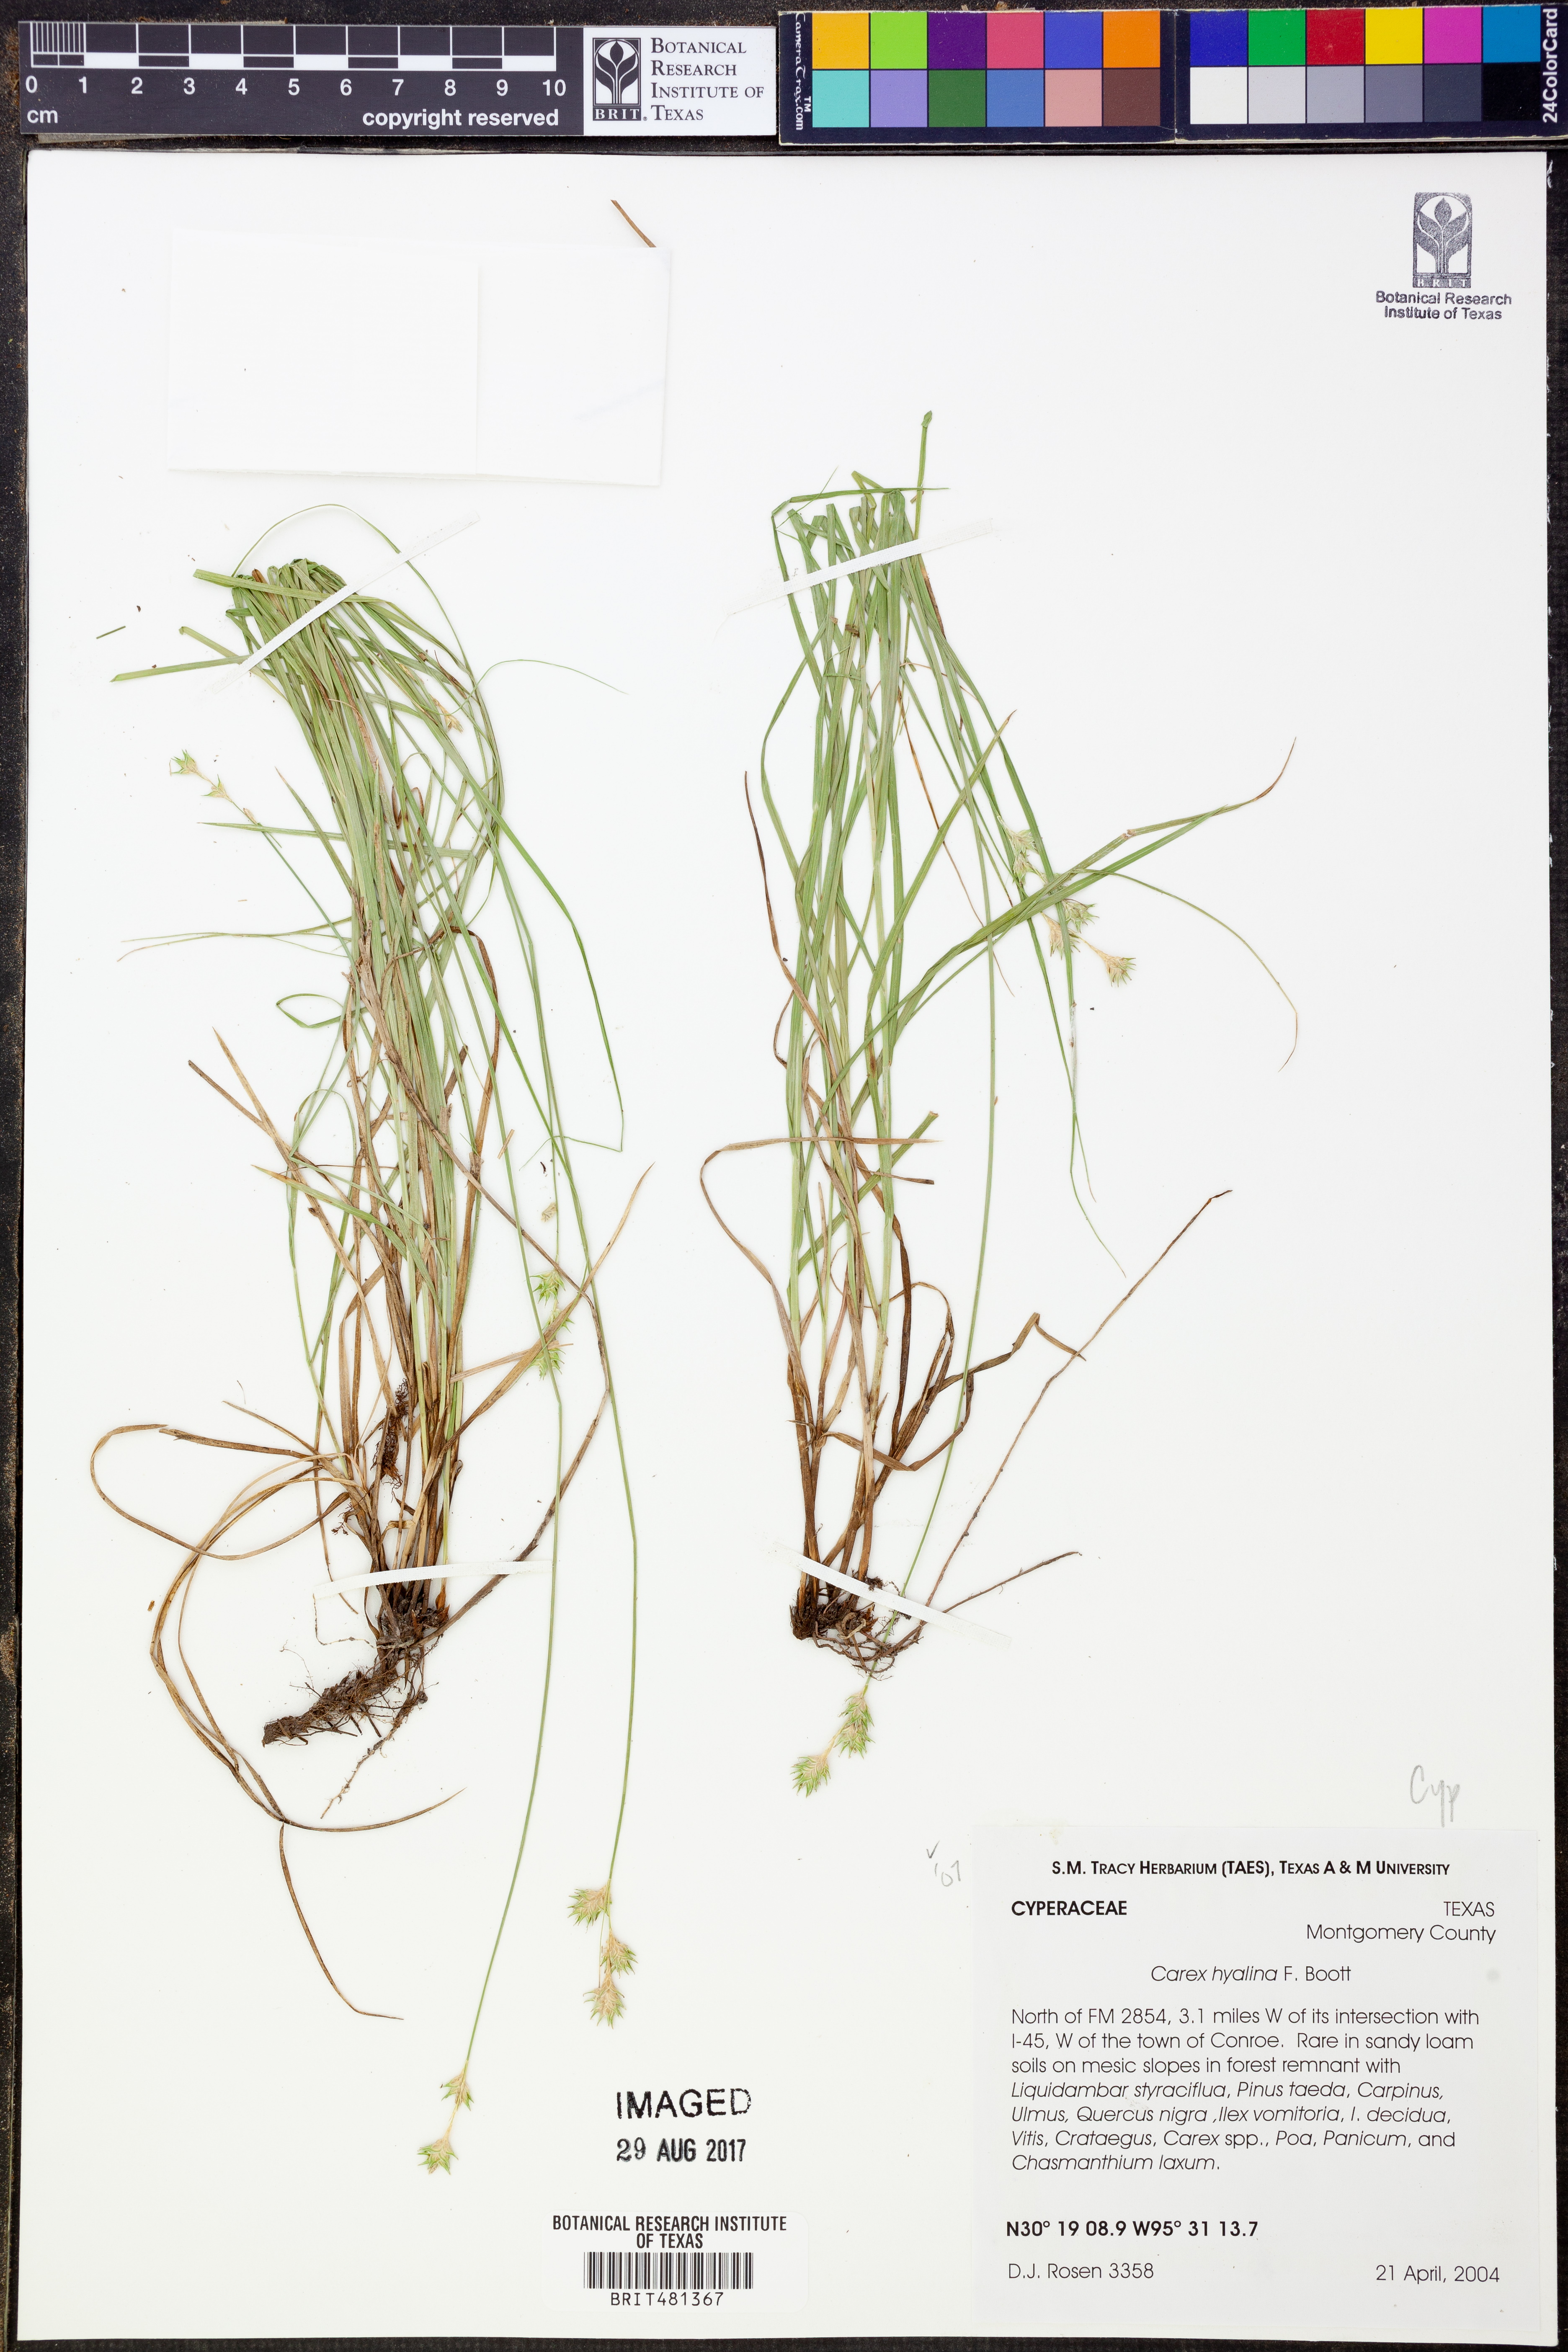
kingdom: Plantae
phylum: Tracheophyta
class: Liliopsida
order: Poales
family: Cyperaceae
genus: Carex
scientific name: Carex hyalina
